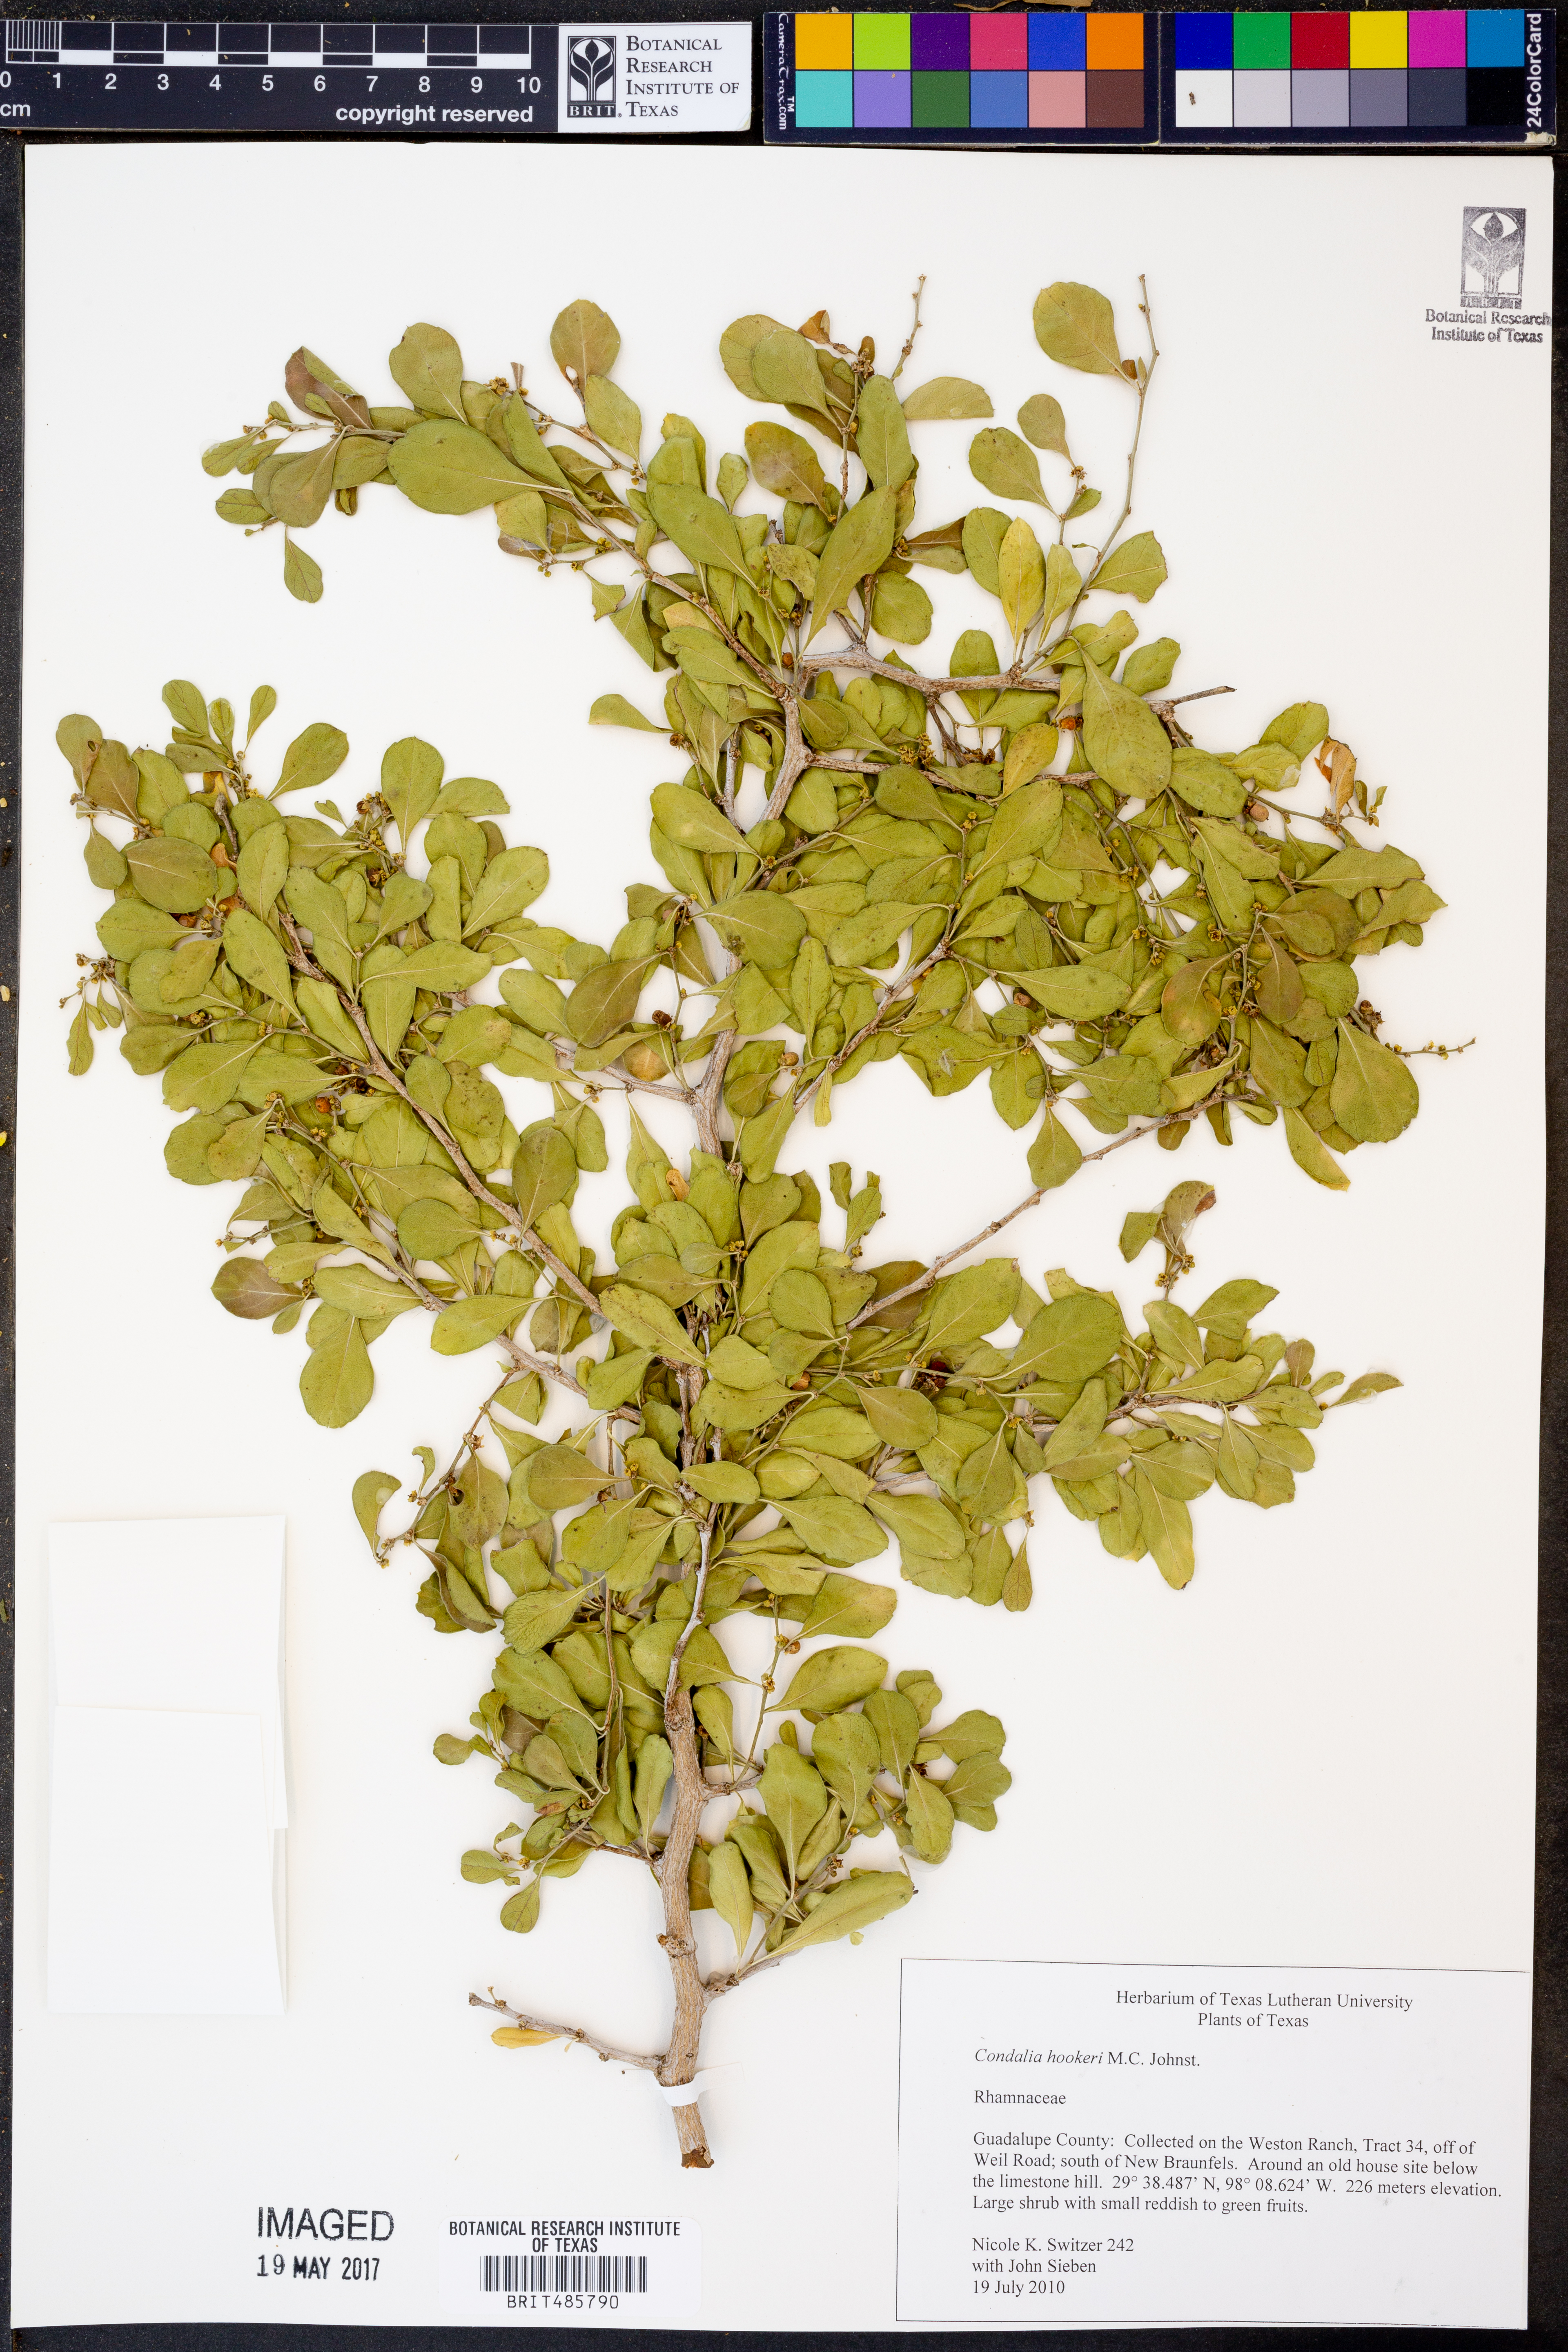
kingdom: Plantae
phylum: Tracheophyta
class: Magnoliopsida
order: Rosales
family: Rhamnaceae
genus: Condalia
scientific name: Condalia hookeri
